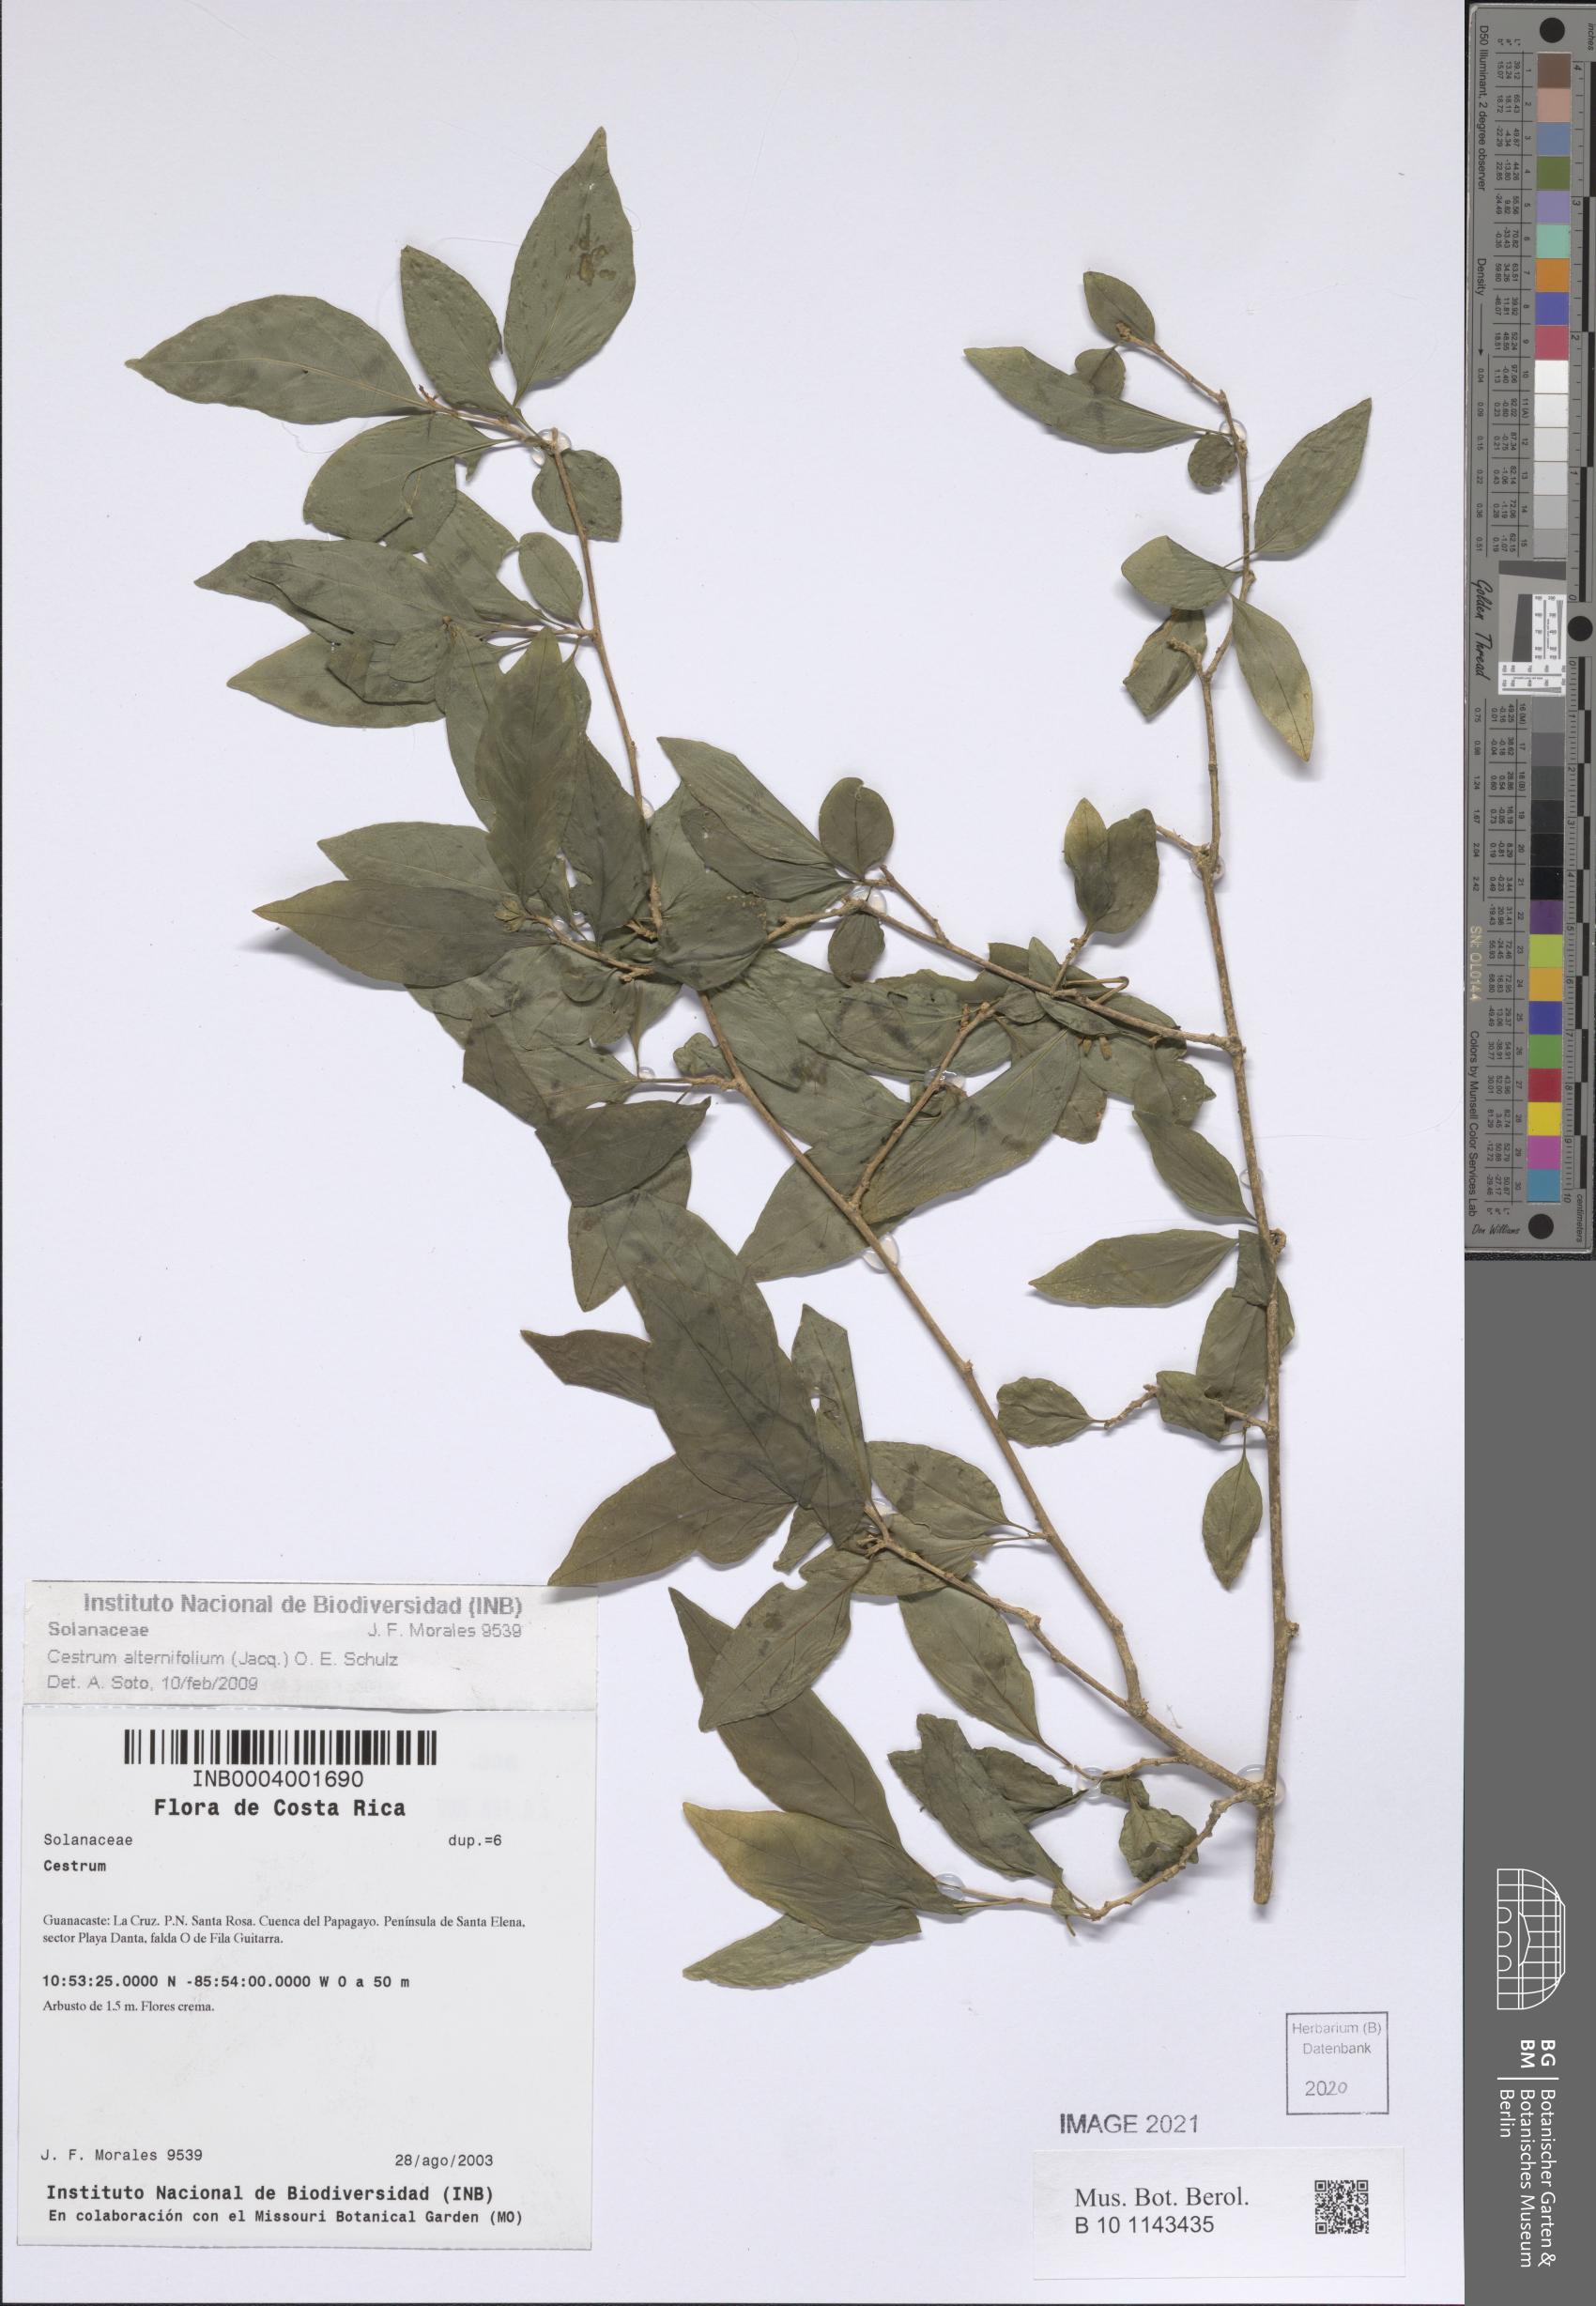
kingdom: Plantae
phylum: Tracheophyta
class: Magnoliopsida
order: Solanales
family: Solanaceae
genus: Cestrum
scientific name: Cestrum alternifolium
